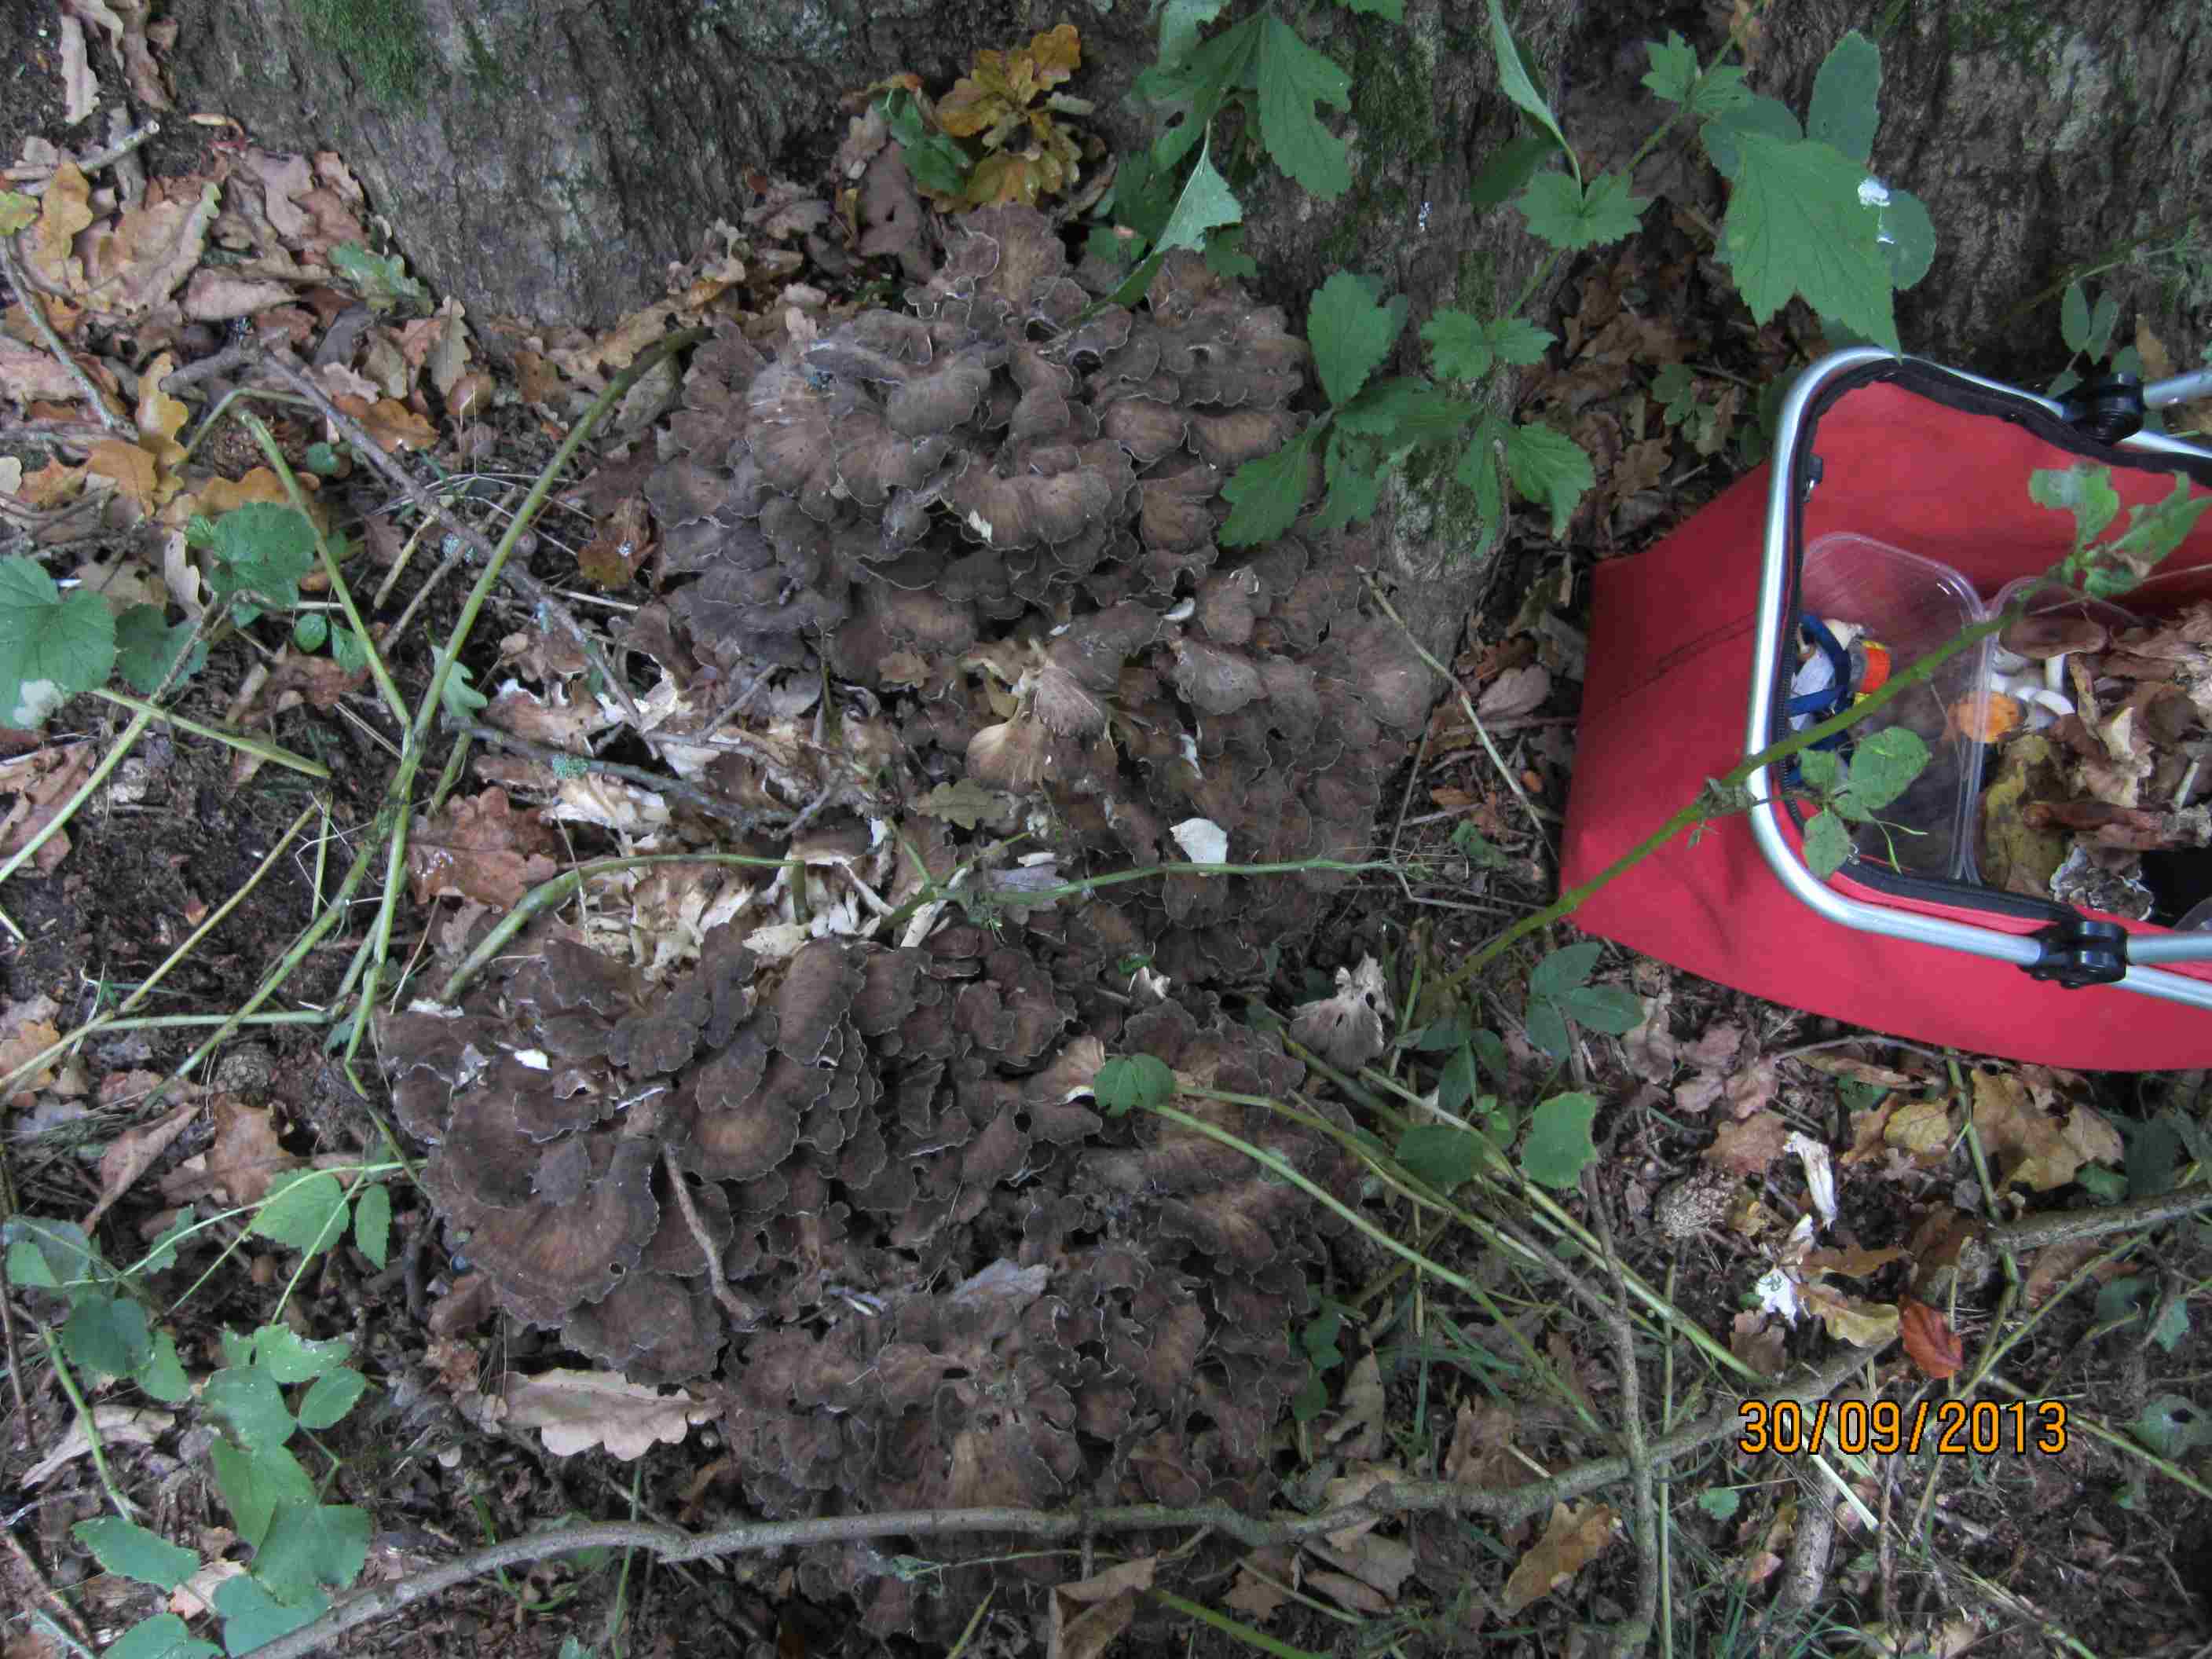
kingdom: Fungi
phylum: Basidiomycota
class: Agaricomycetes
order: Polyporales
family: Grifolaceae
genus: Grifola
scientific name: Grifola frondosa
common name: tueporesvamp
